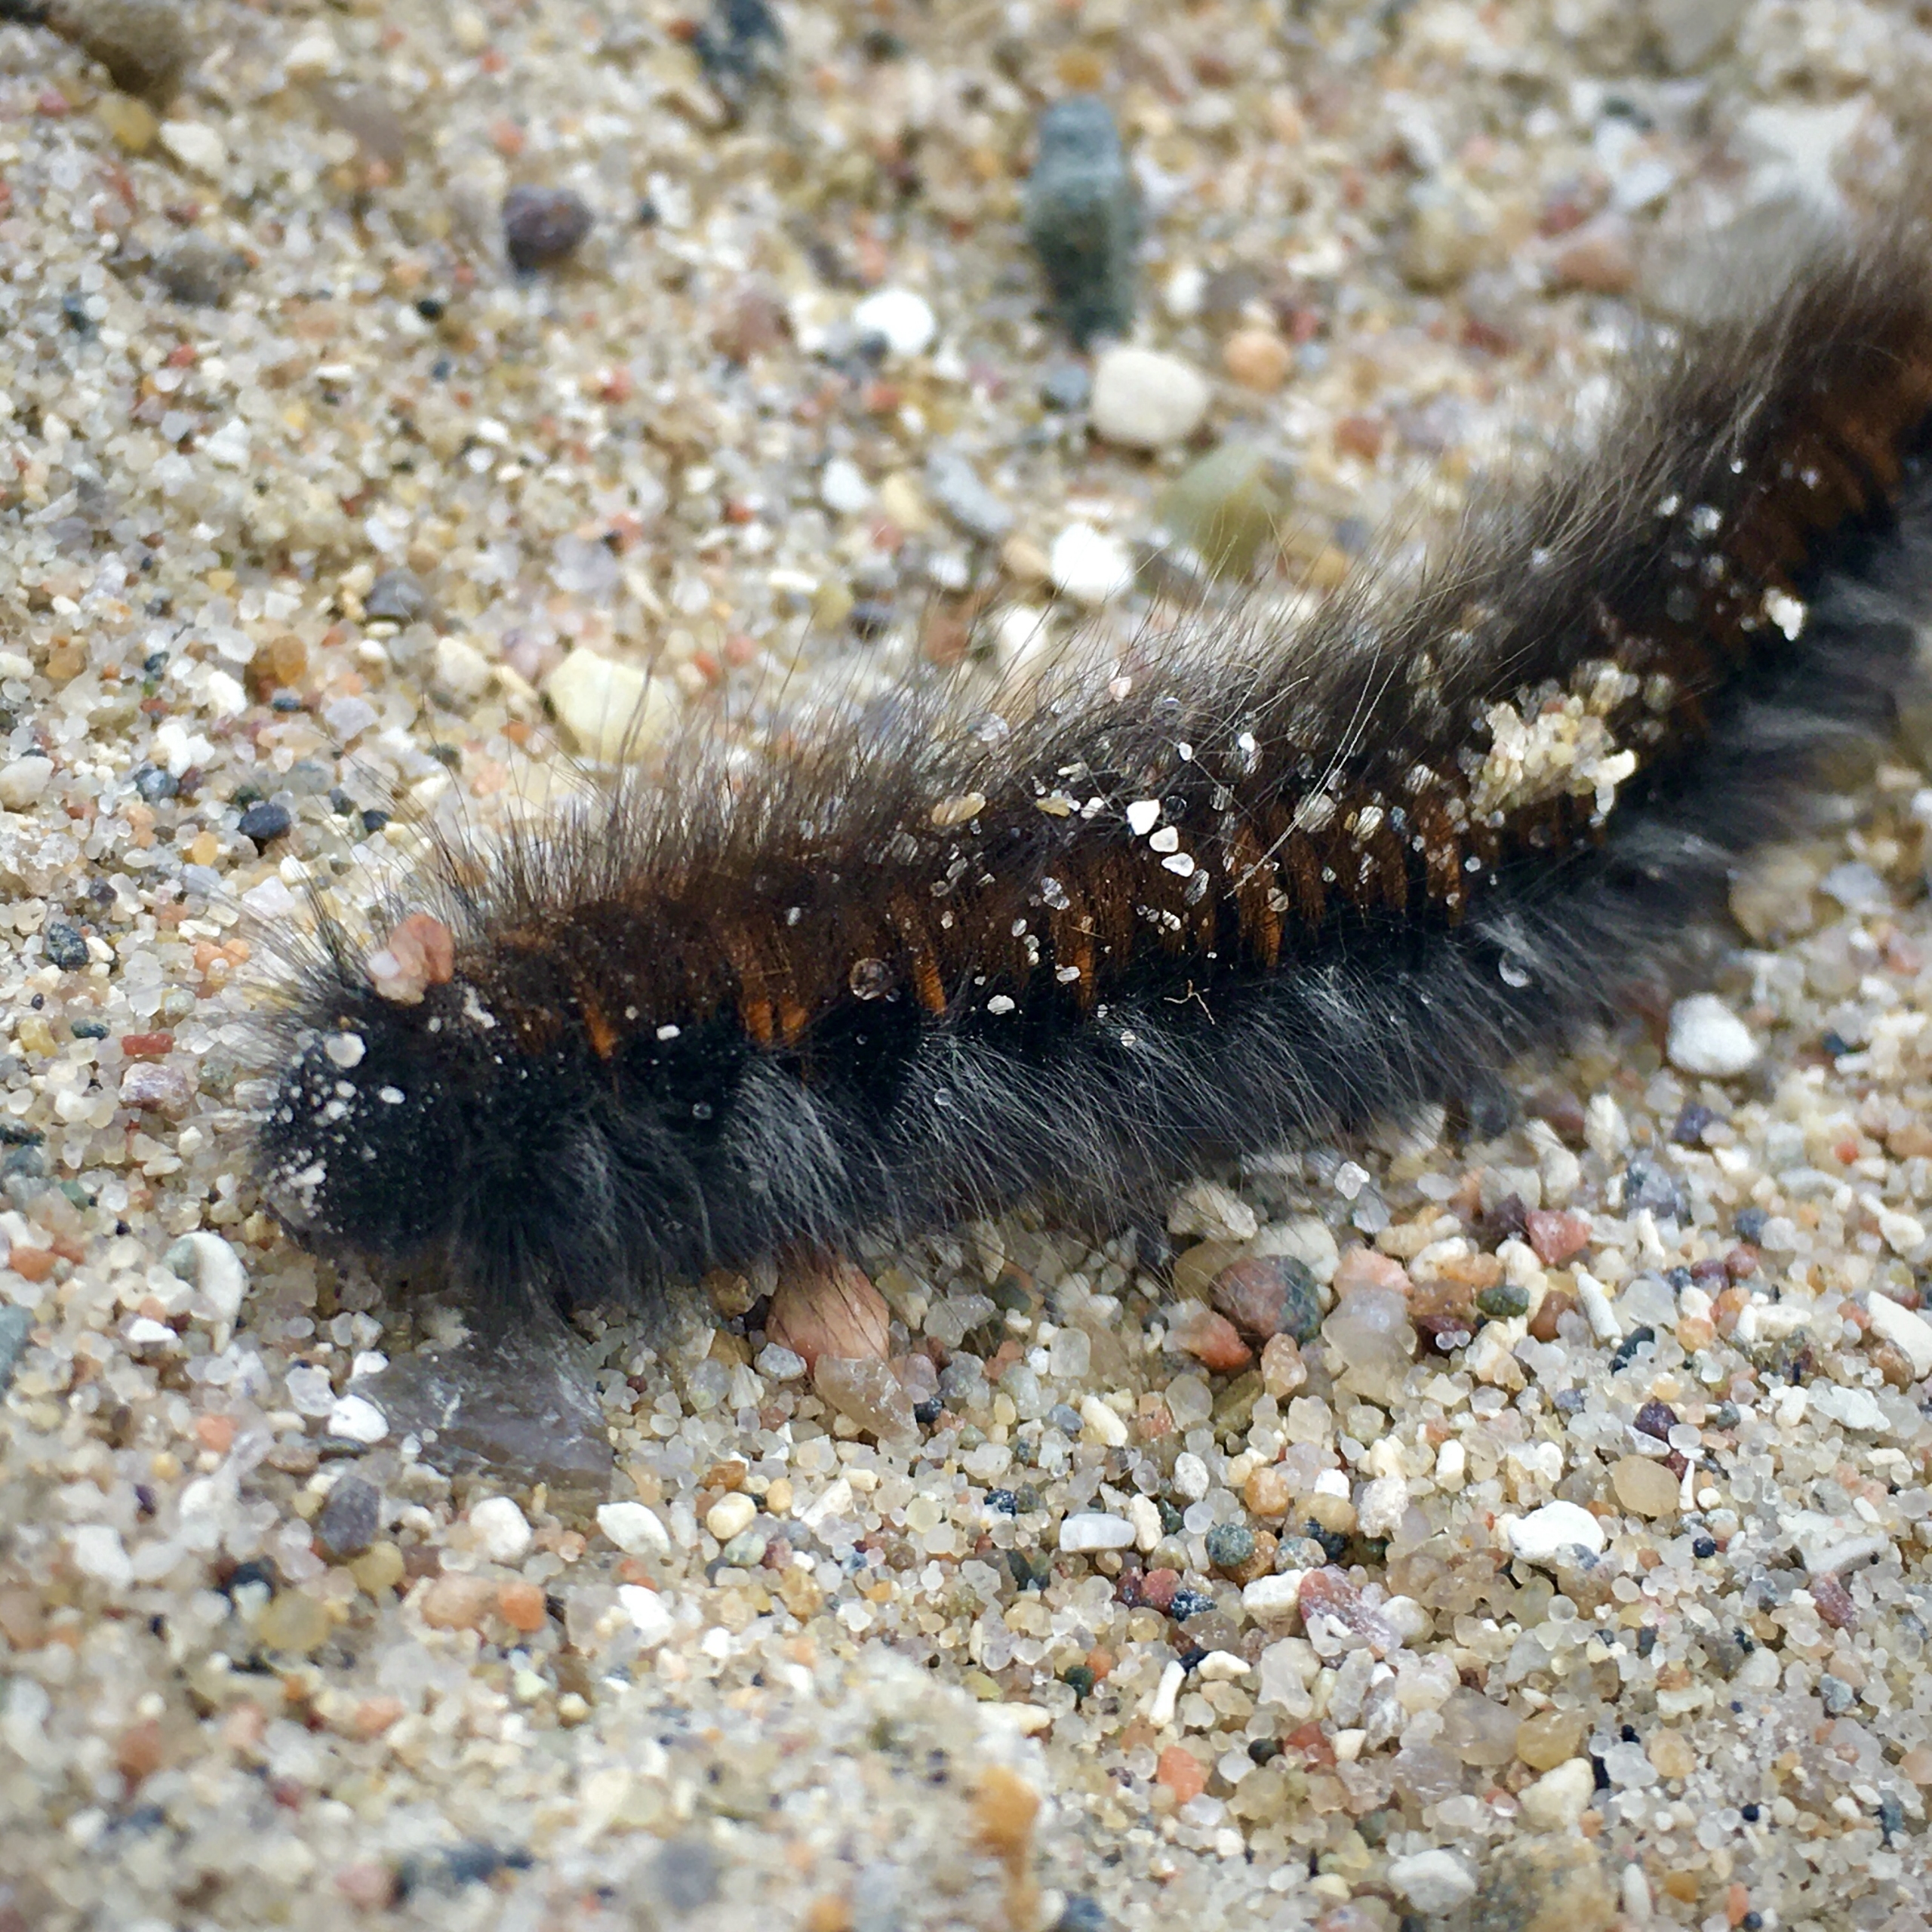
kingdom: Animalia
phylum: Arthropoda
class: Insecta
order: Lepidoptera
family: Lasiocampidae
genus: Macrothylacia
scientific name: Macrothylacia rubi
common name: Brombærspinder
